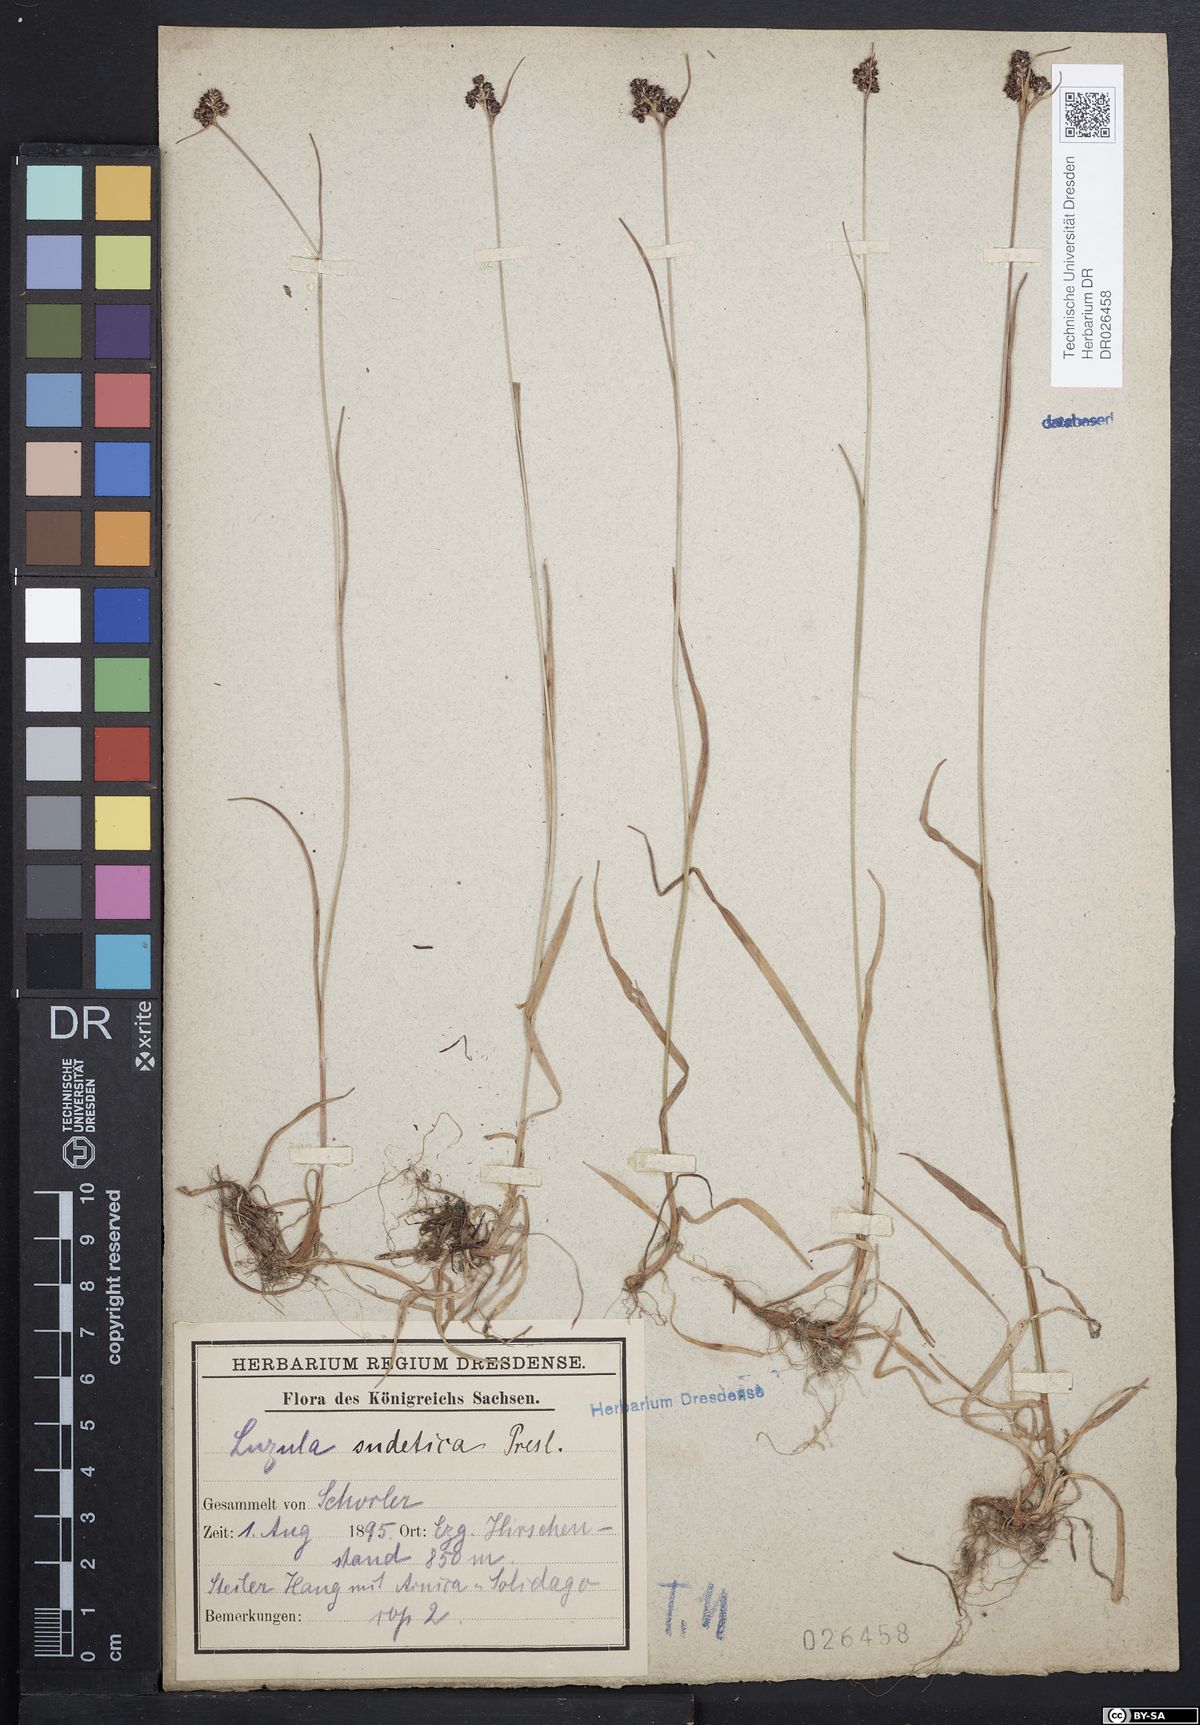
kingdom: Plantae
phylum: Tracheophyta
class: Liliopsida
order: Poales
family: Juncaceae
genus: Luzula
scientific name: Luzula sudetica
